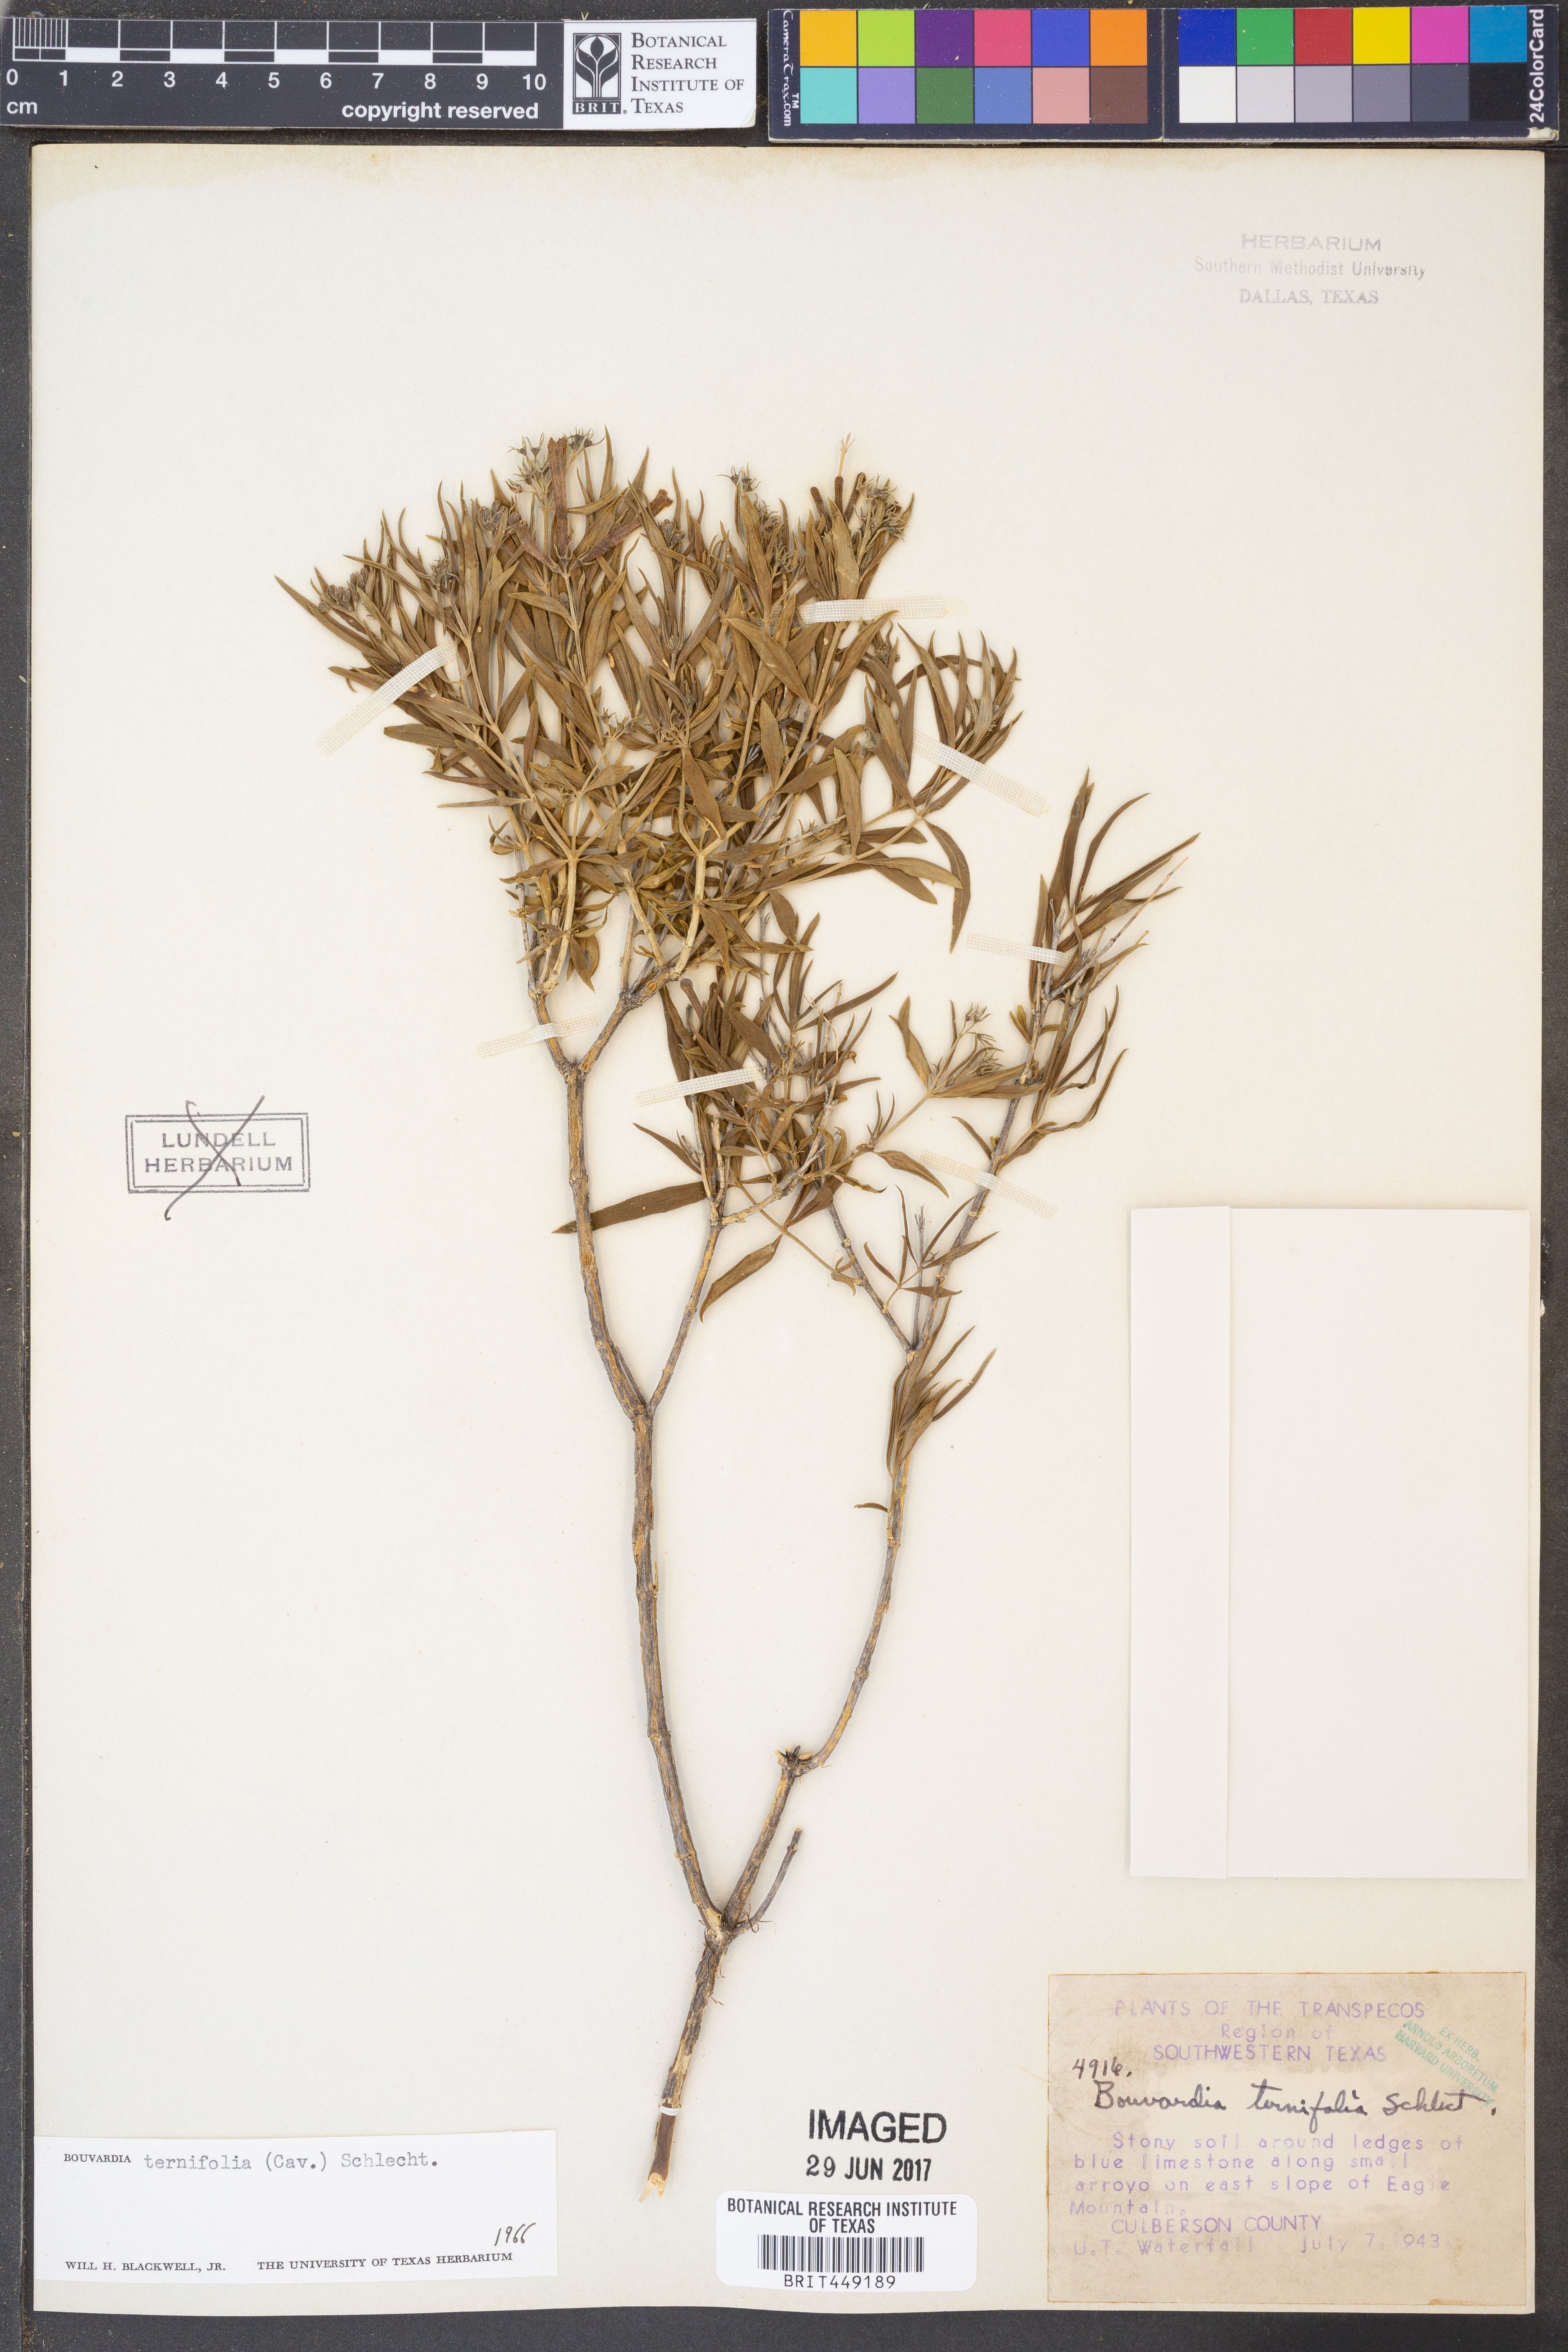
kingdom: Plantae
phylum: Tracheophyta
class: Magnoliopsida
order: Gentianales
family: Rubiaceae
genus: Bouvardia
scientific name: Bouvardia ternifolia
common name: Scarlet bouvardia
